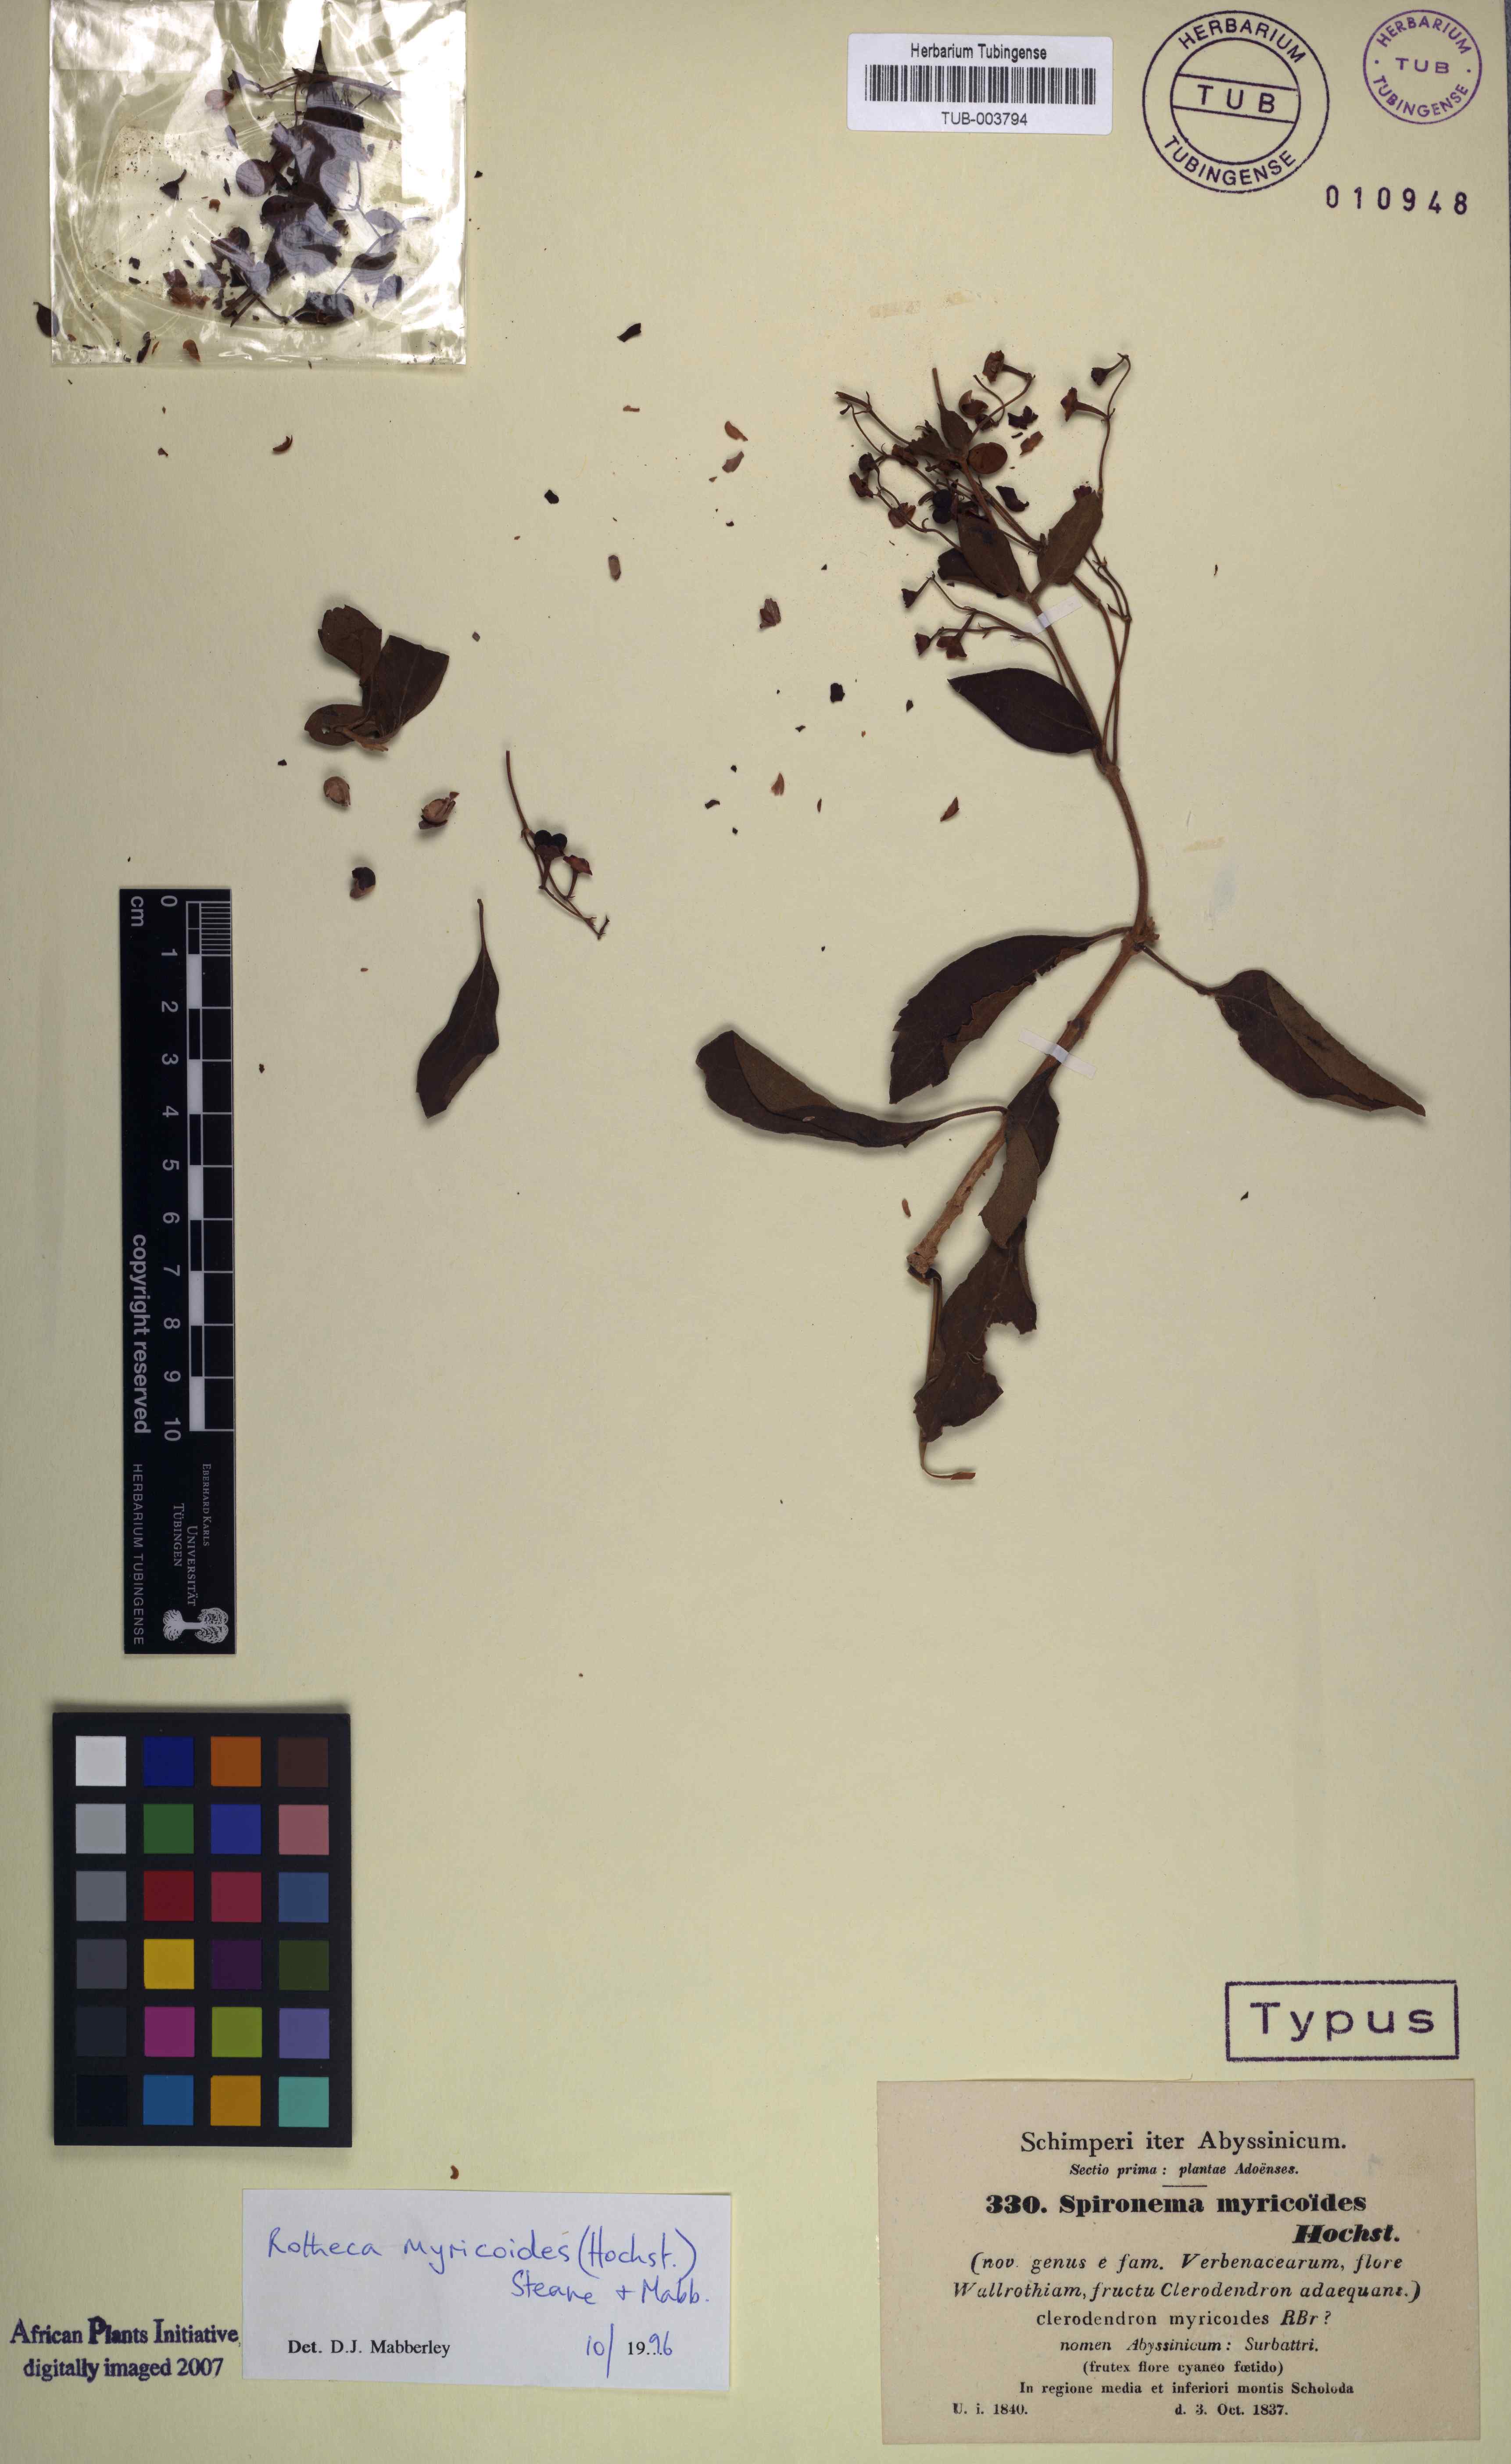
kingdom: Plantae
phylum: Tracheophyta
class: Magnoliopsida
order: Lamiales
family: Lamiaceae
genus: Rotheca
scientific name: Rotheca myricoides
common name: Cats-whiskers
